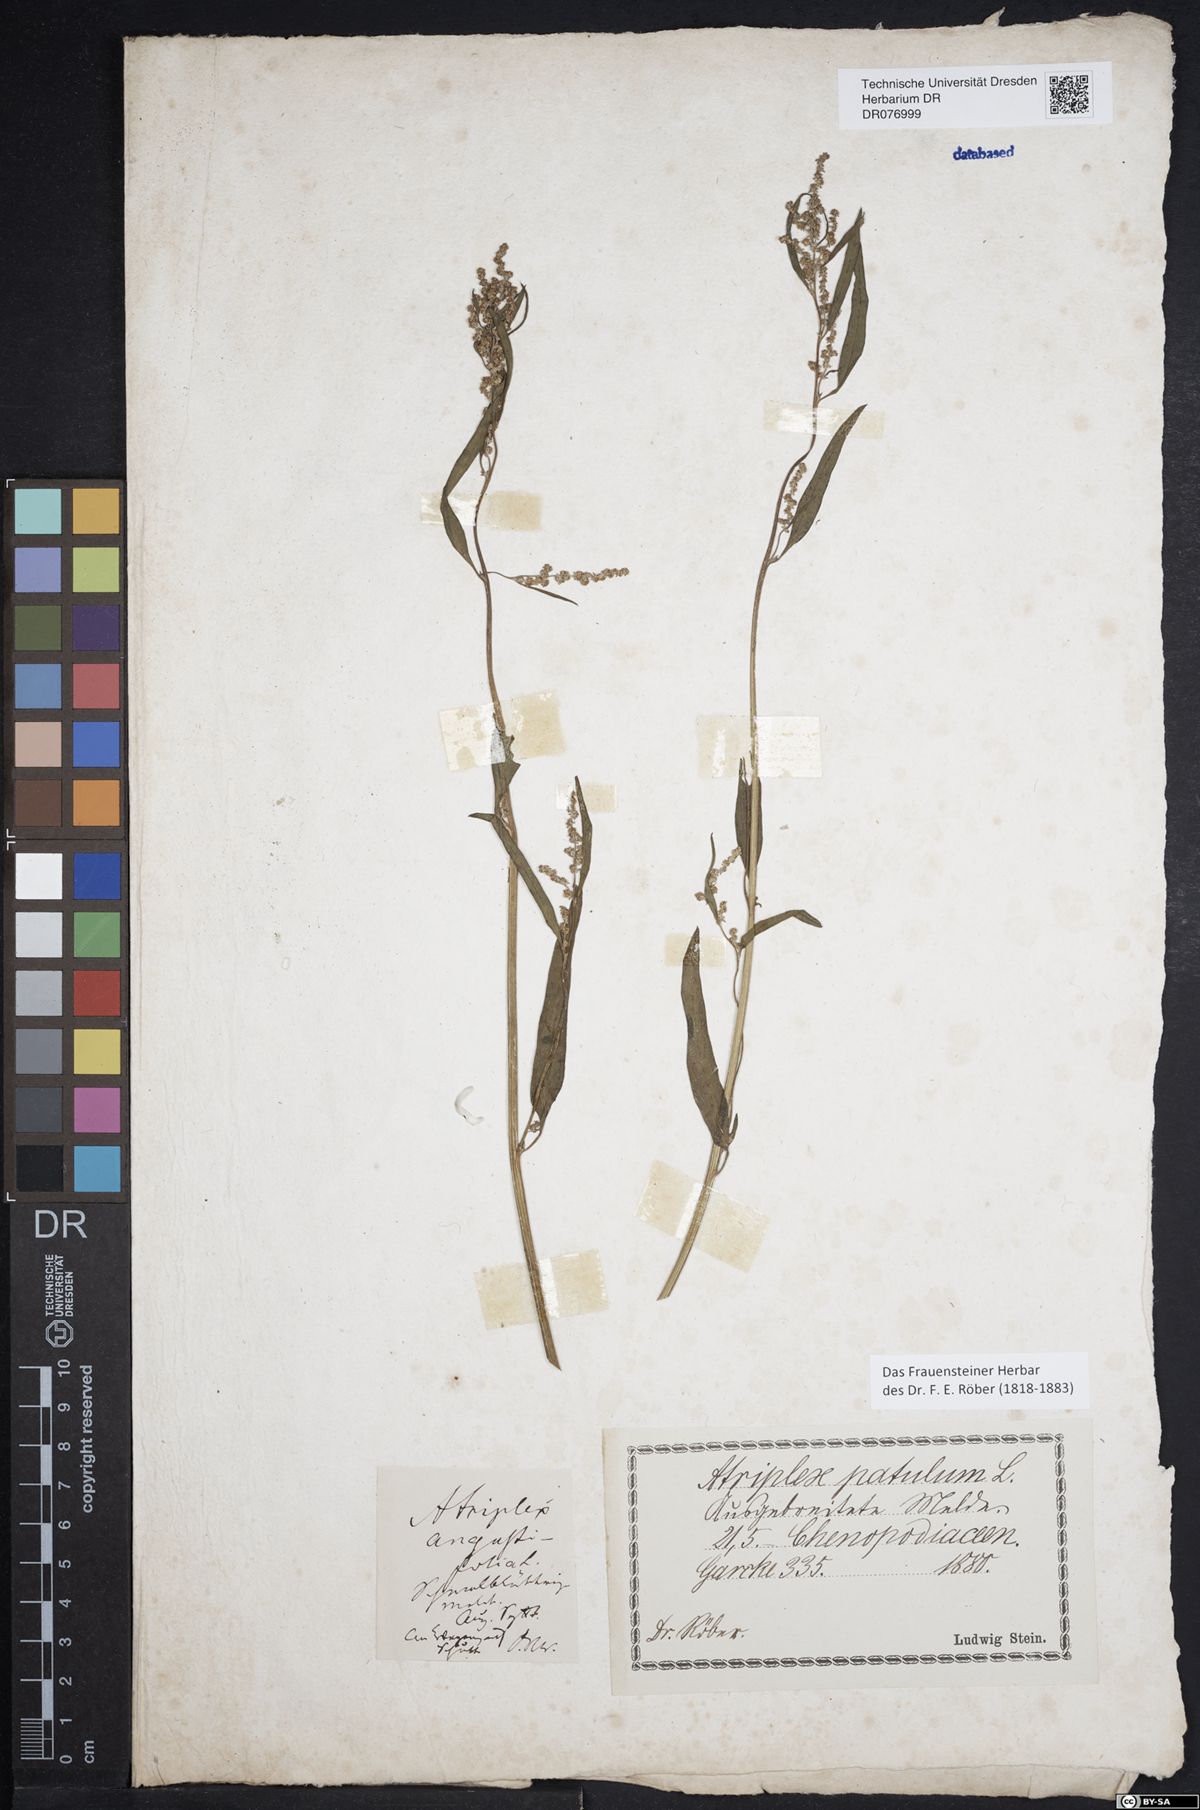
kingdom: Plantae
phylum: Tracheophyta
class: Magnoliopsida
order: Caryophyllales
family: Amaranthaceae
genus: Atriplex
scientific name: Atriplex patula
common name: Common orache
